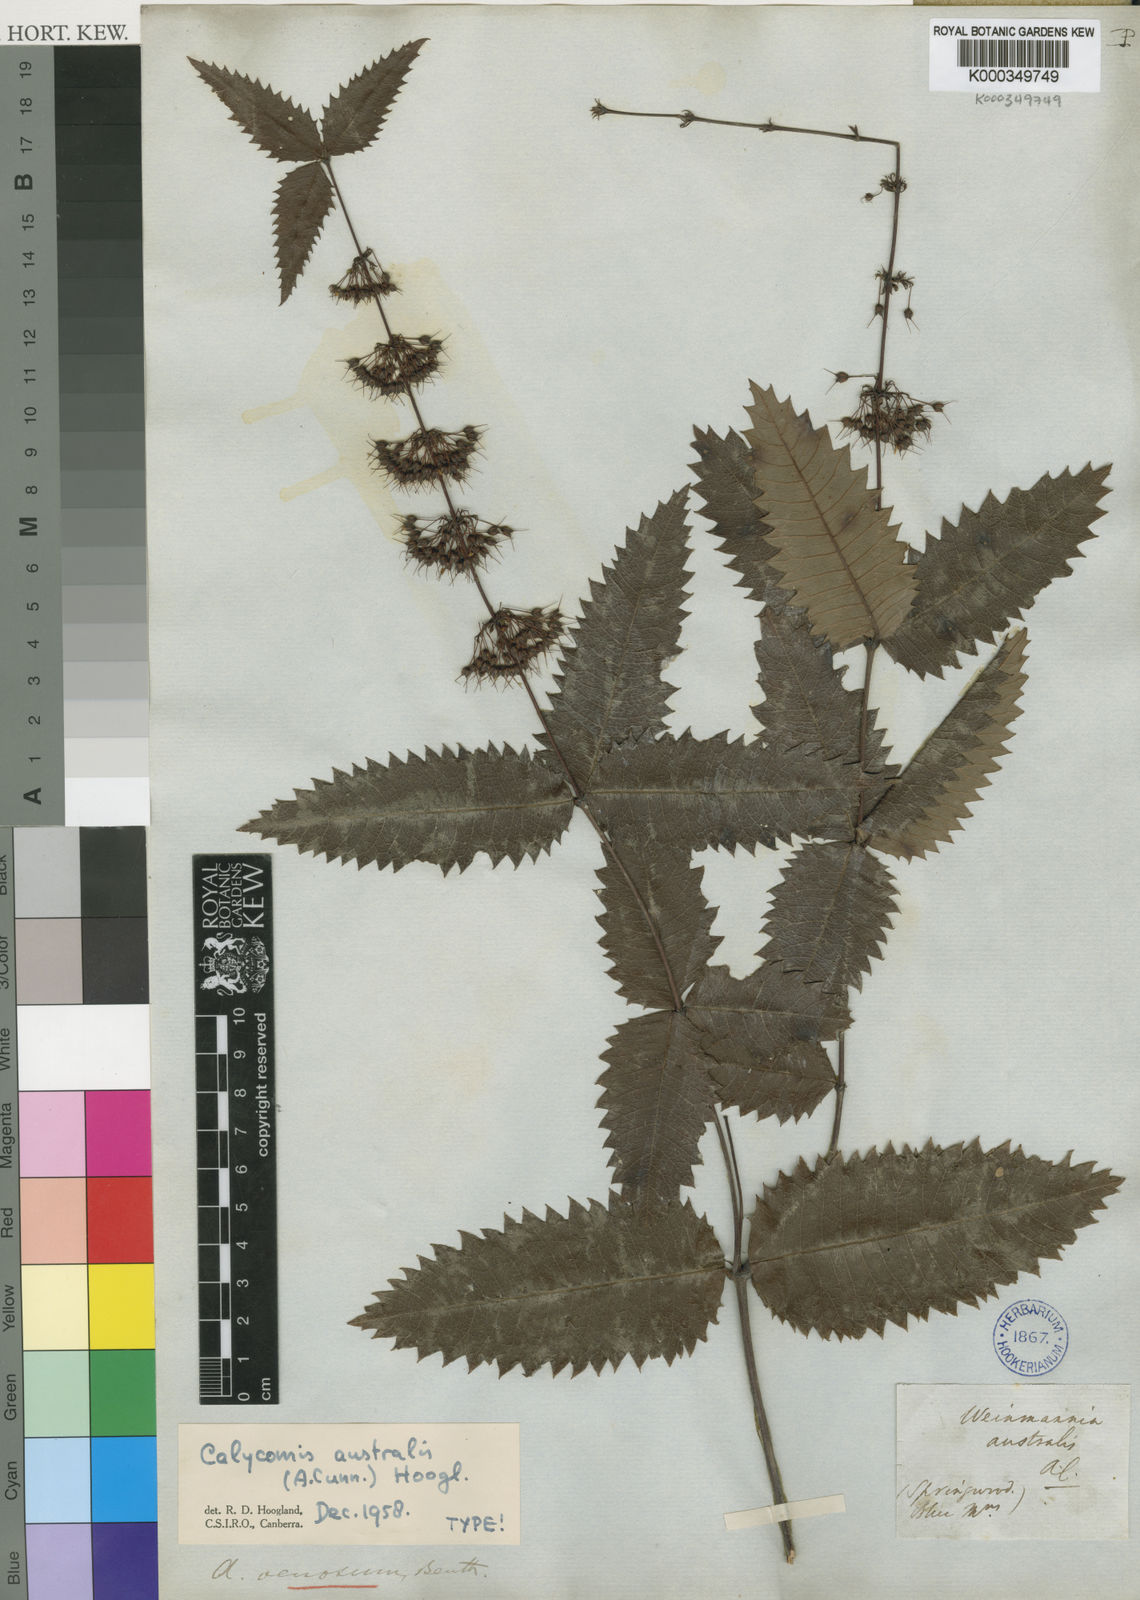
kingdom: Plantae
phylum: Tracheophyta
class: Magnoliopsida
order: Oxalidales
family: Cunoniaceae
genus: Acrophyllum
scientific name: Acrophyllum australe
